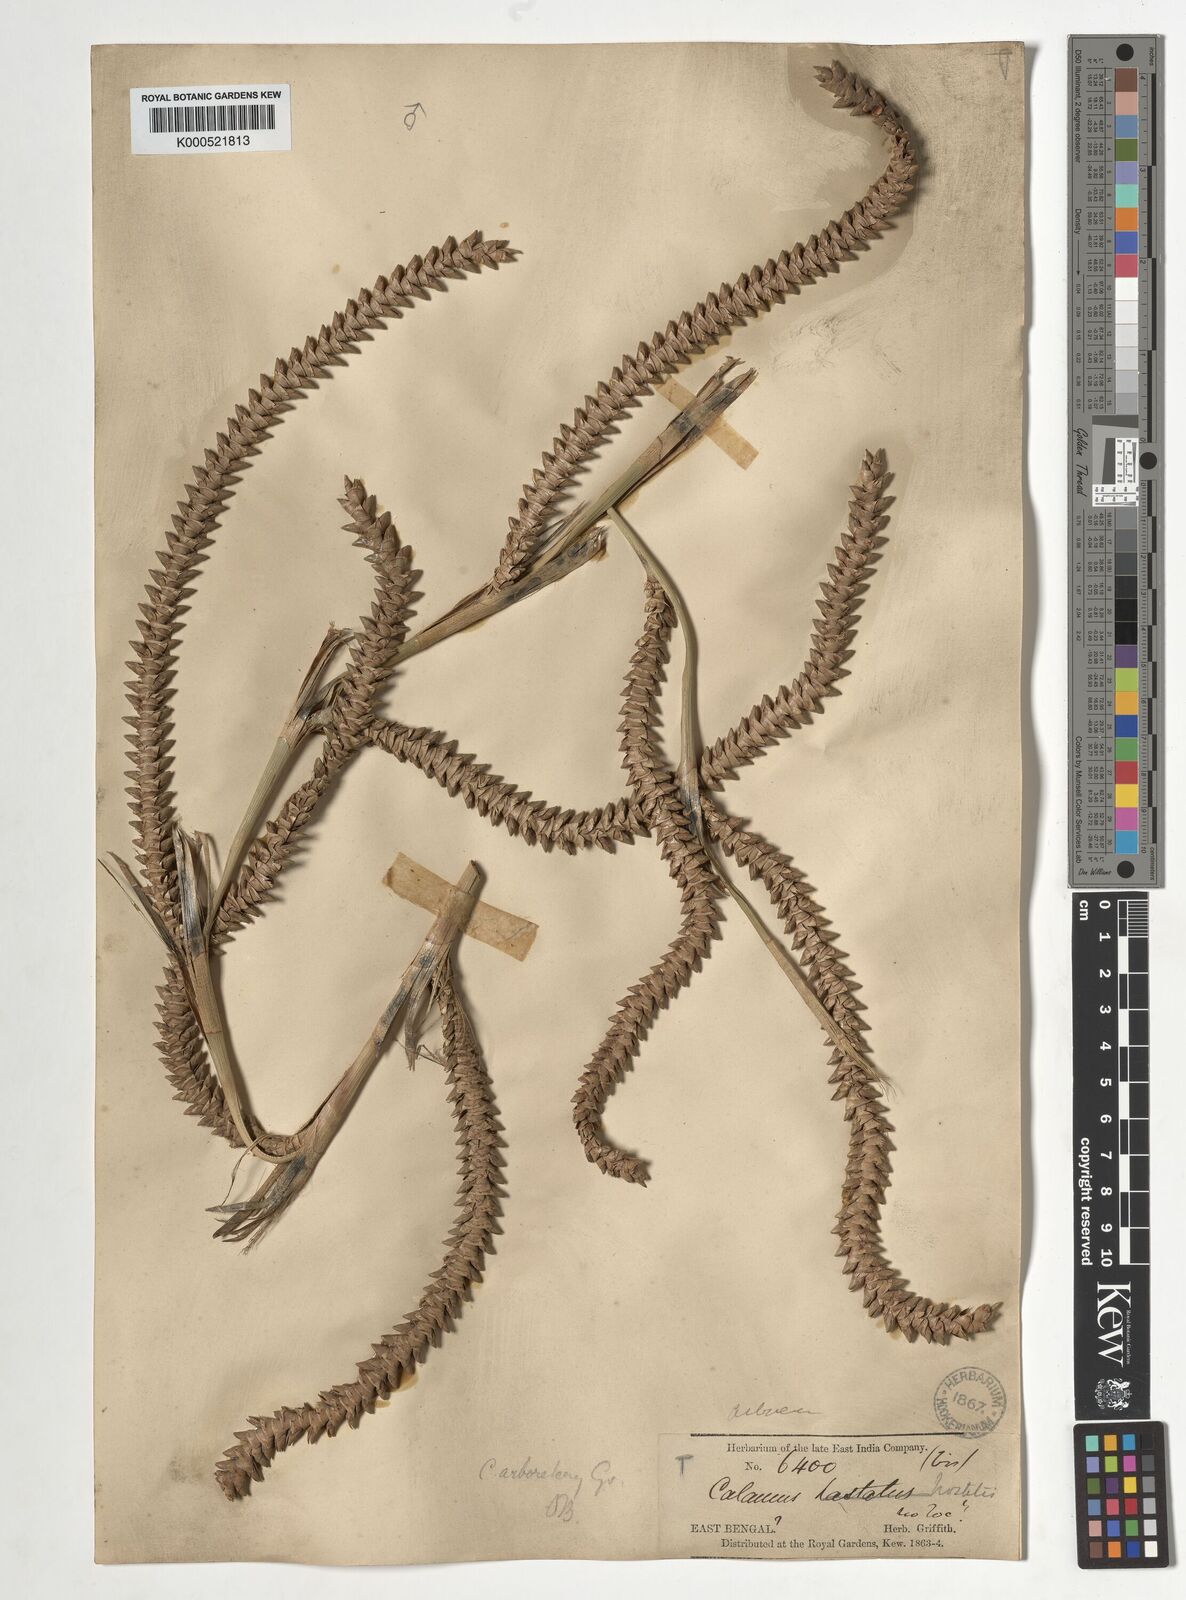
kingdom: Plantae
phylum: Tracheophyta
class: Liliopsida
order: Arecales
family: Arecaceae
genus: Calamus
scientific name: Calamus arborescens
